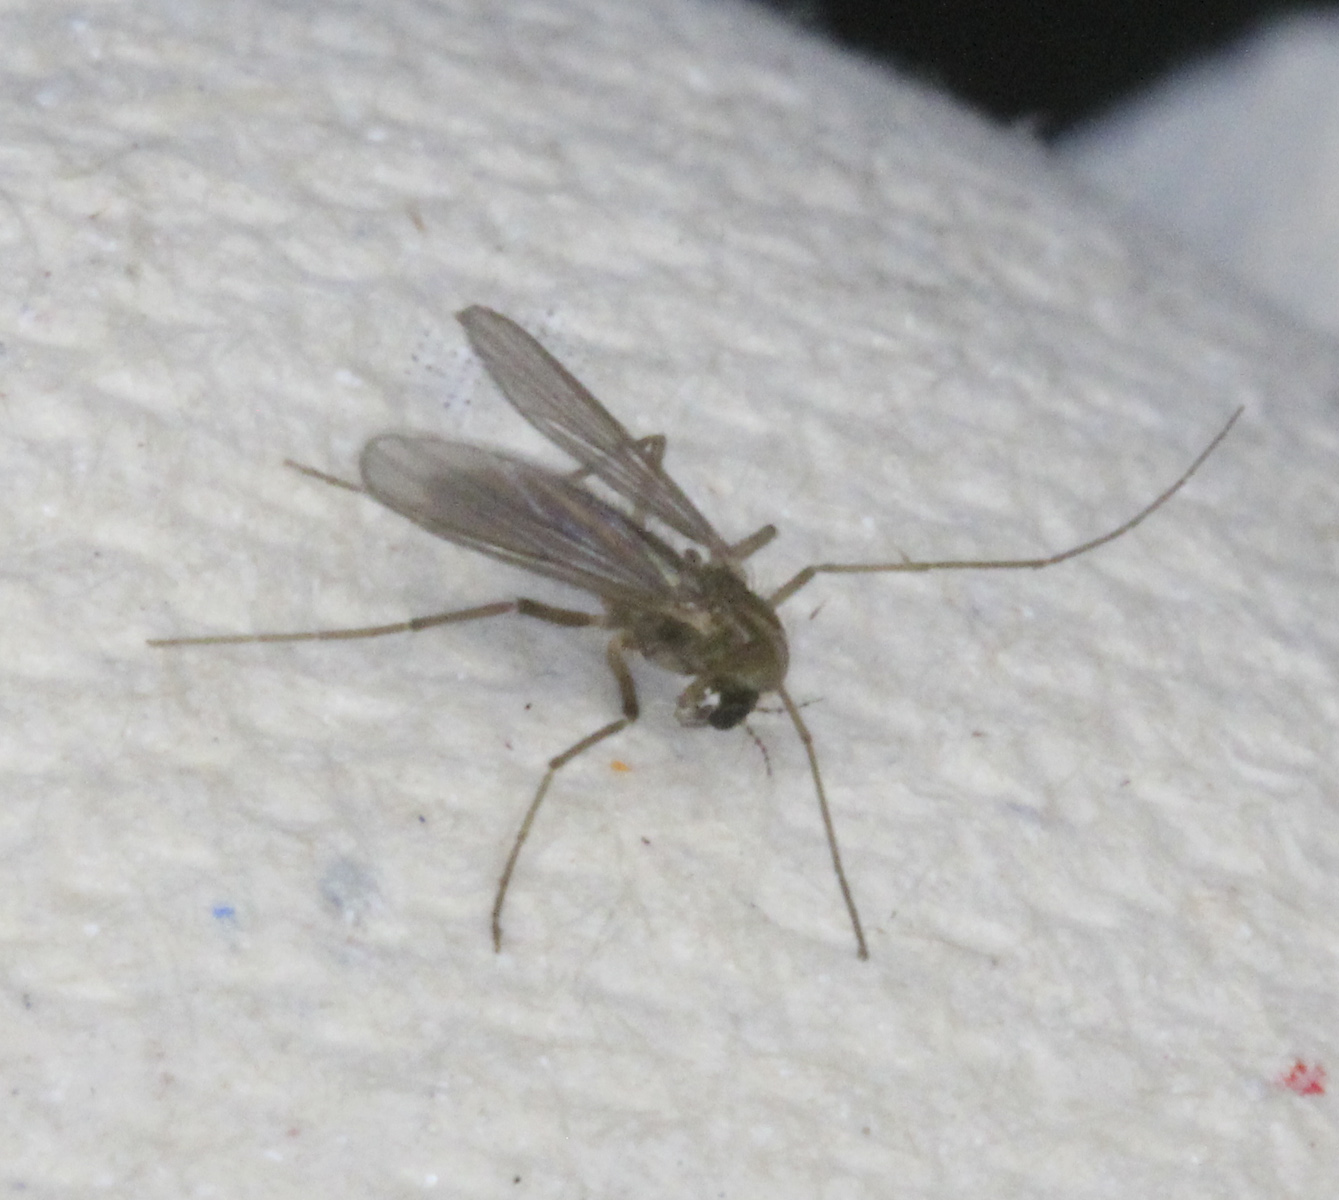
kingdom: Animalia
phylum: Arthropoda
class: Insecta
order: Diptera
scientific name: Diptera
